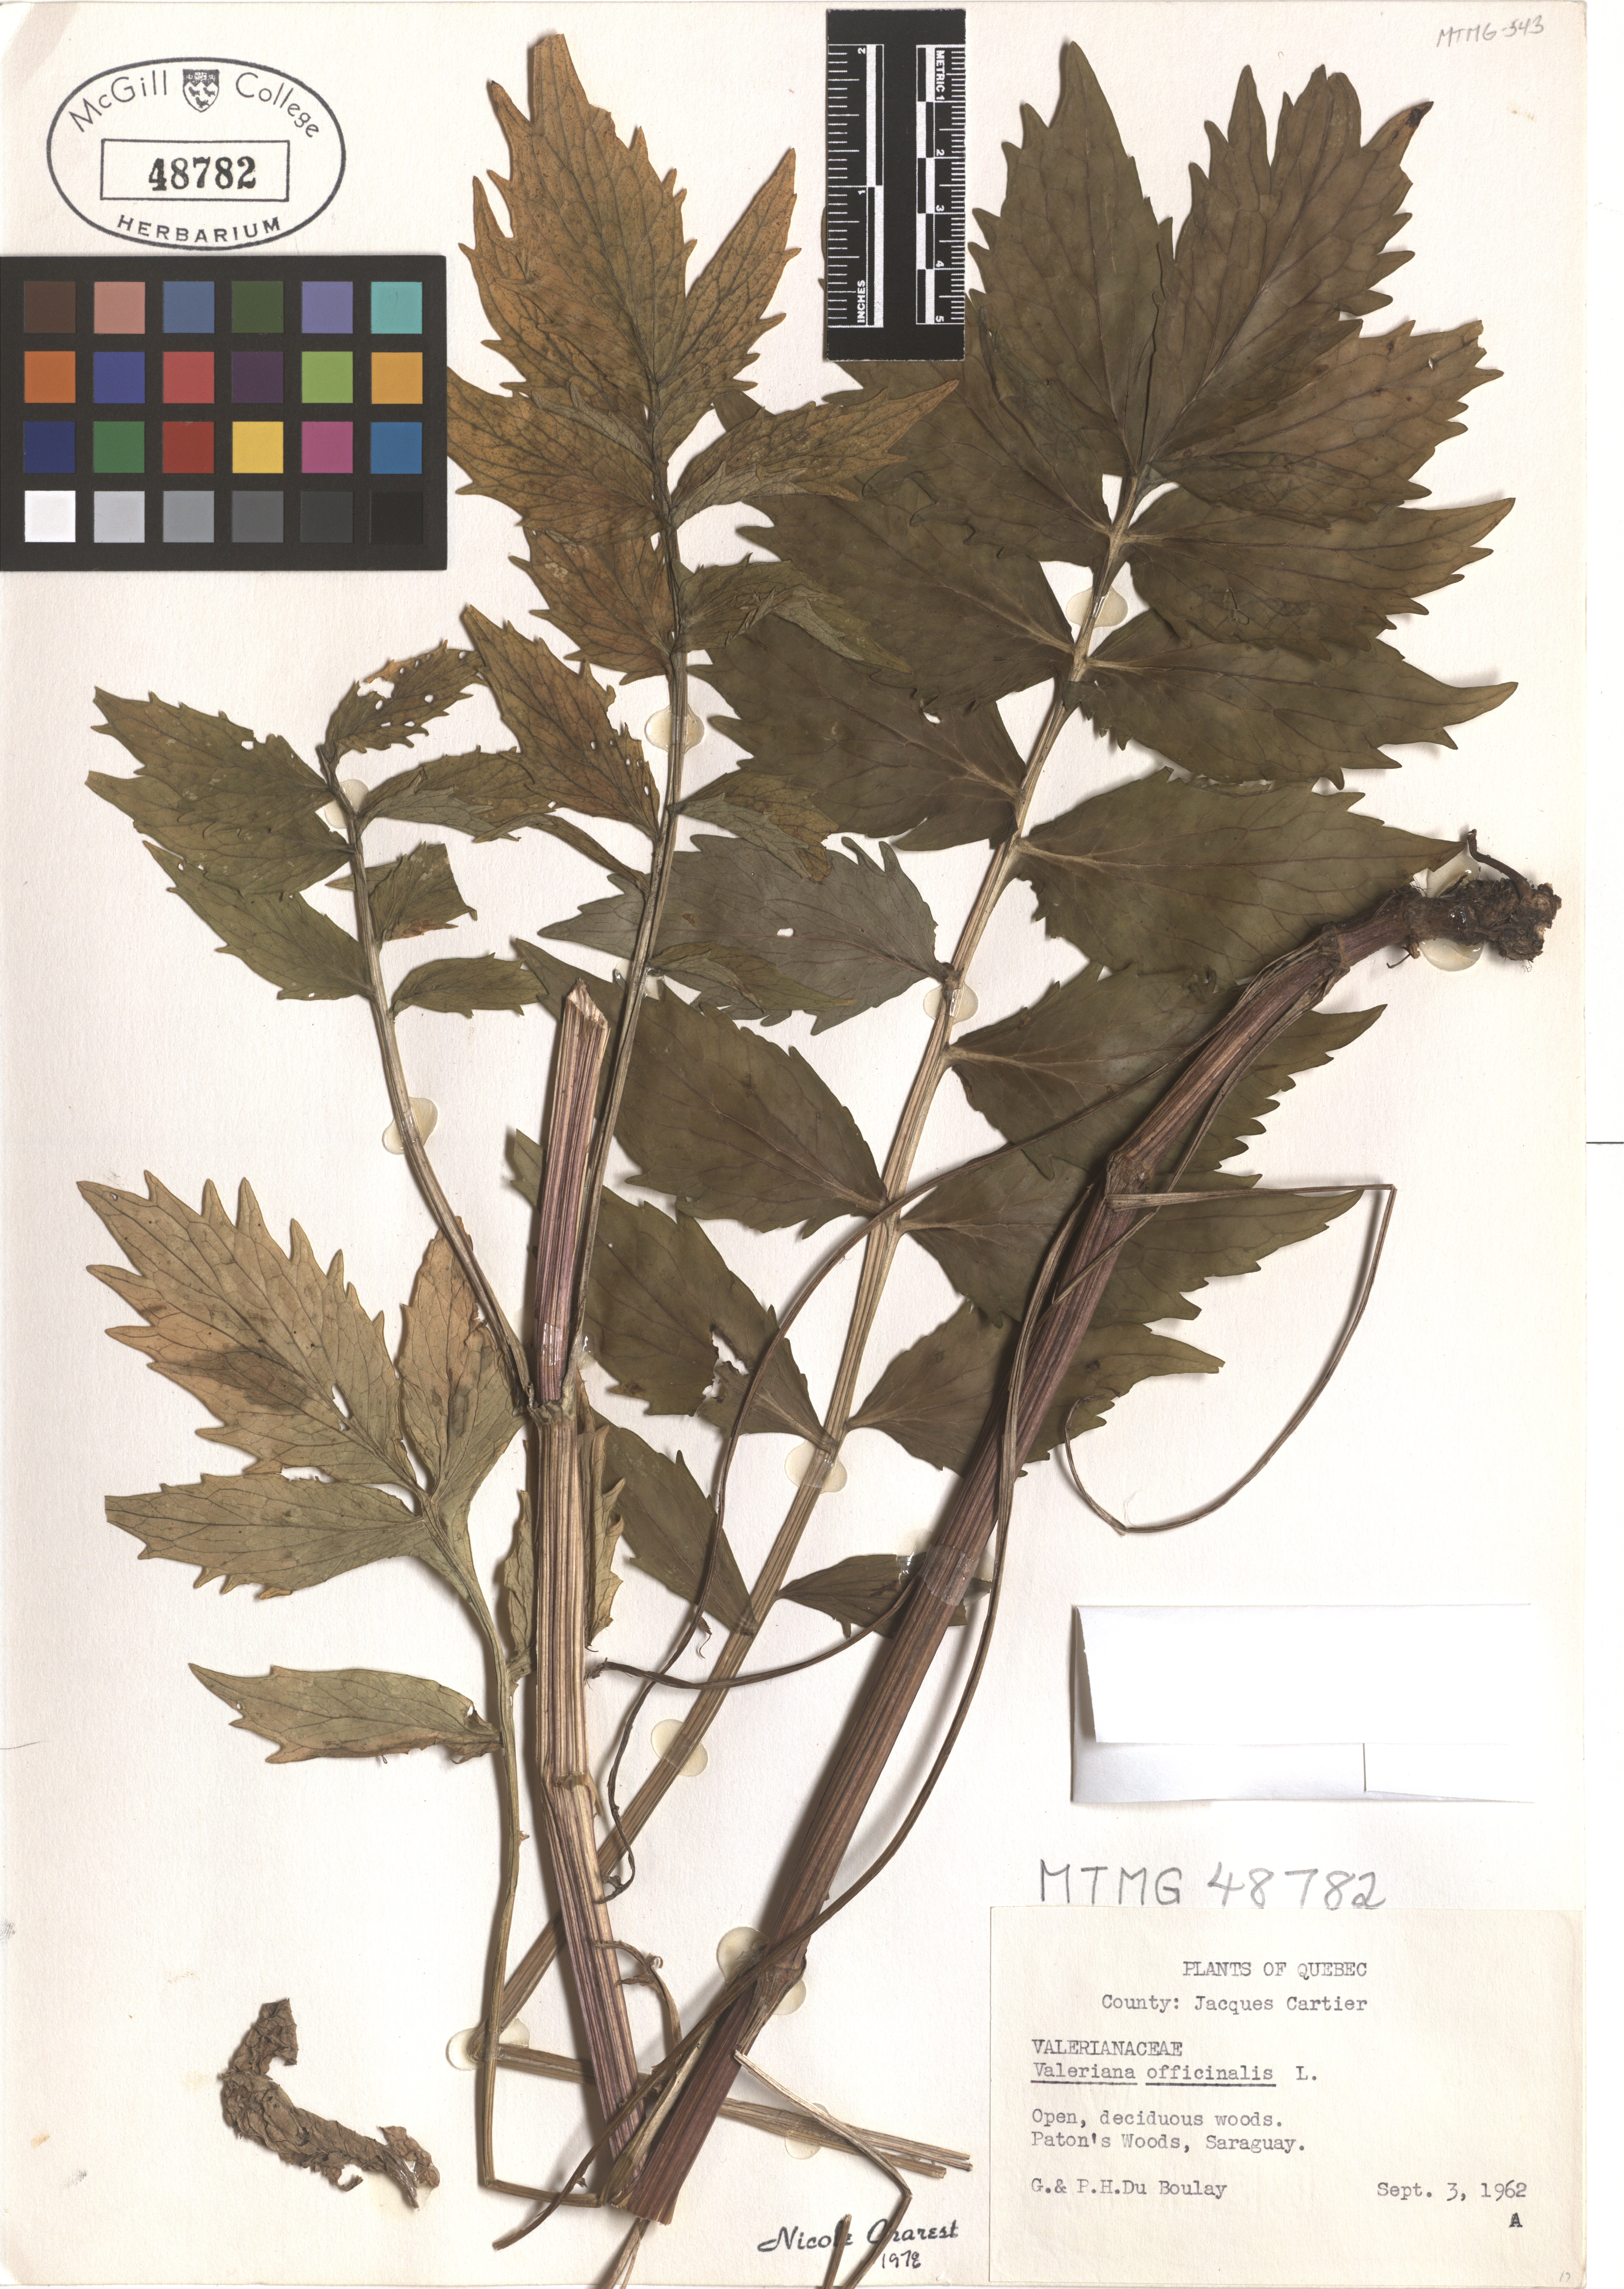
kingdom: Plantae
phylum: Tracheophyta
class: Magnoliopsida
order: Dipsacales
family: Caprifoliaceae
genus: Valeriana
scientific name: Valeriana officinalis
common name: Common valerian
